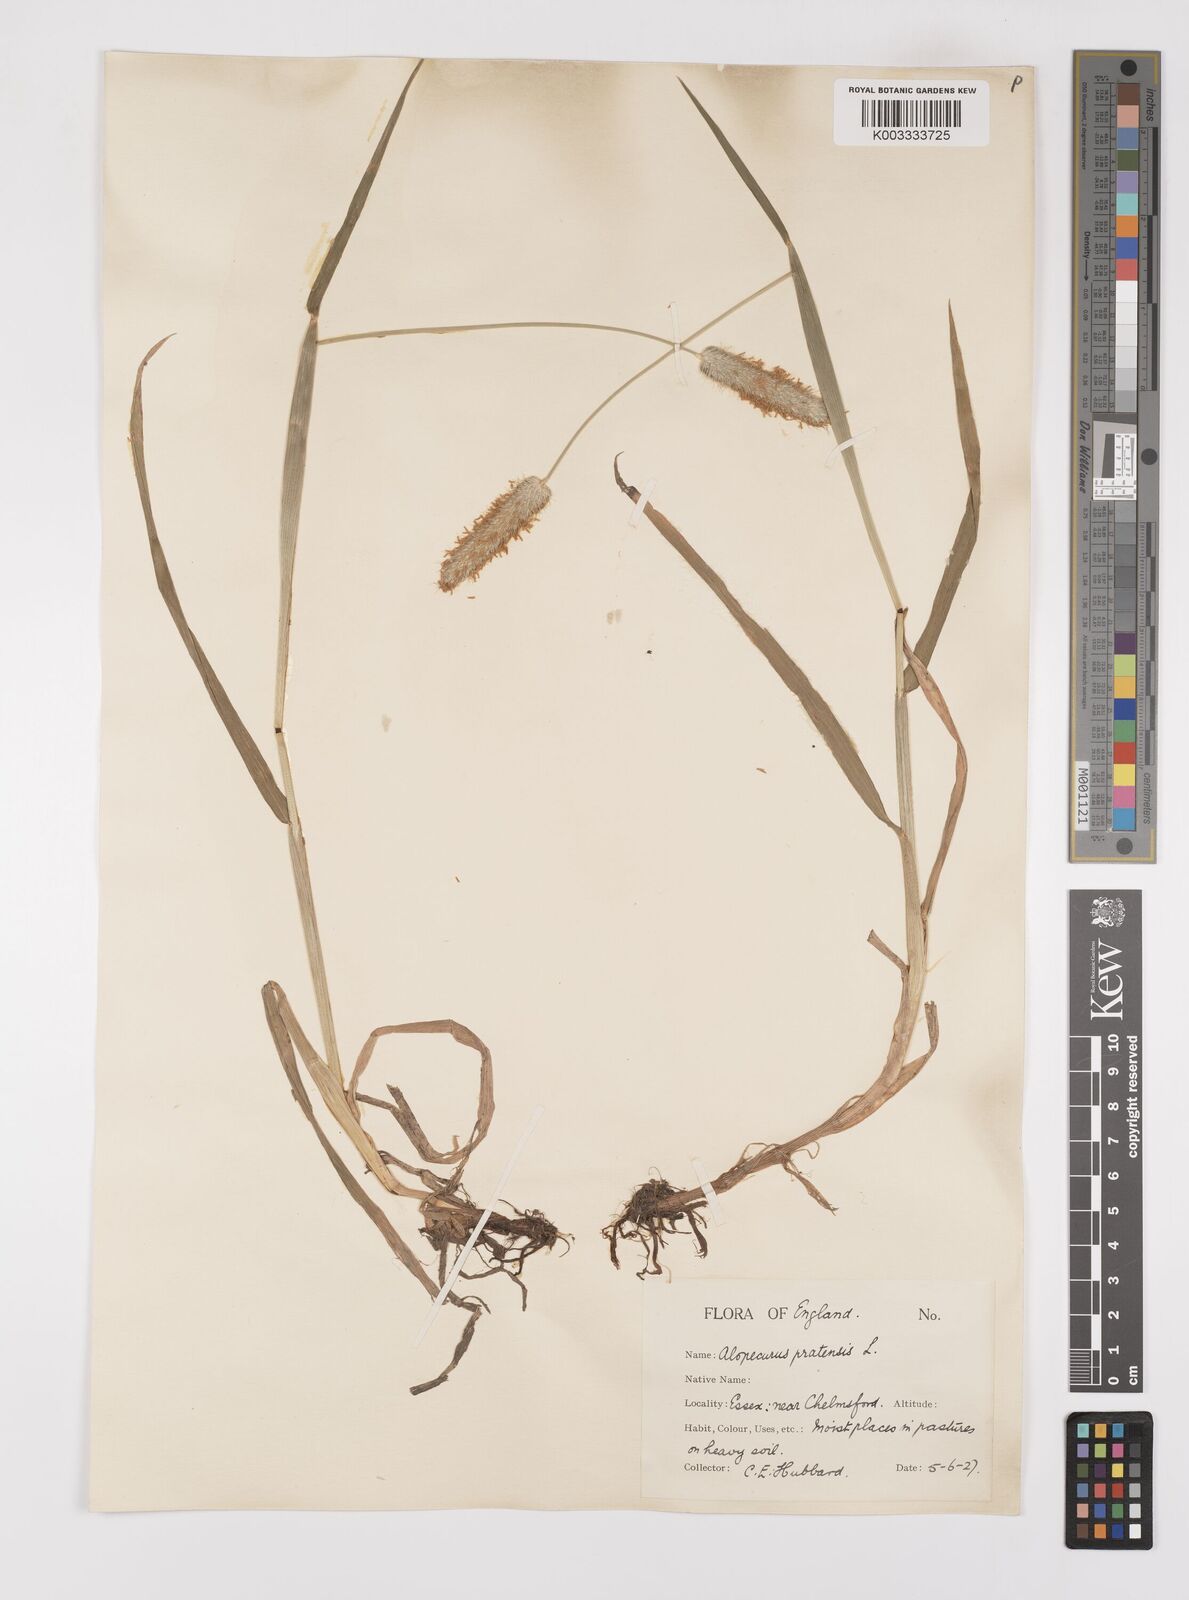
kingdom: Plantae
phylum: Tracheophyta
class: Liliopsida
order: Poales
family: Poaceae
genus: Alopecurus
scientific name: Alopecurus pratensis
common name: Meadow foxtail
